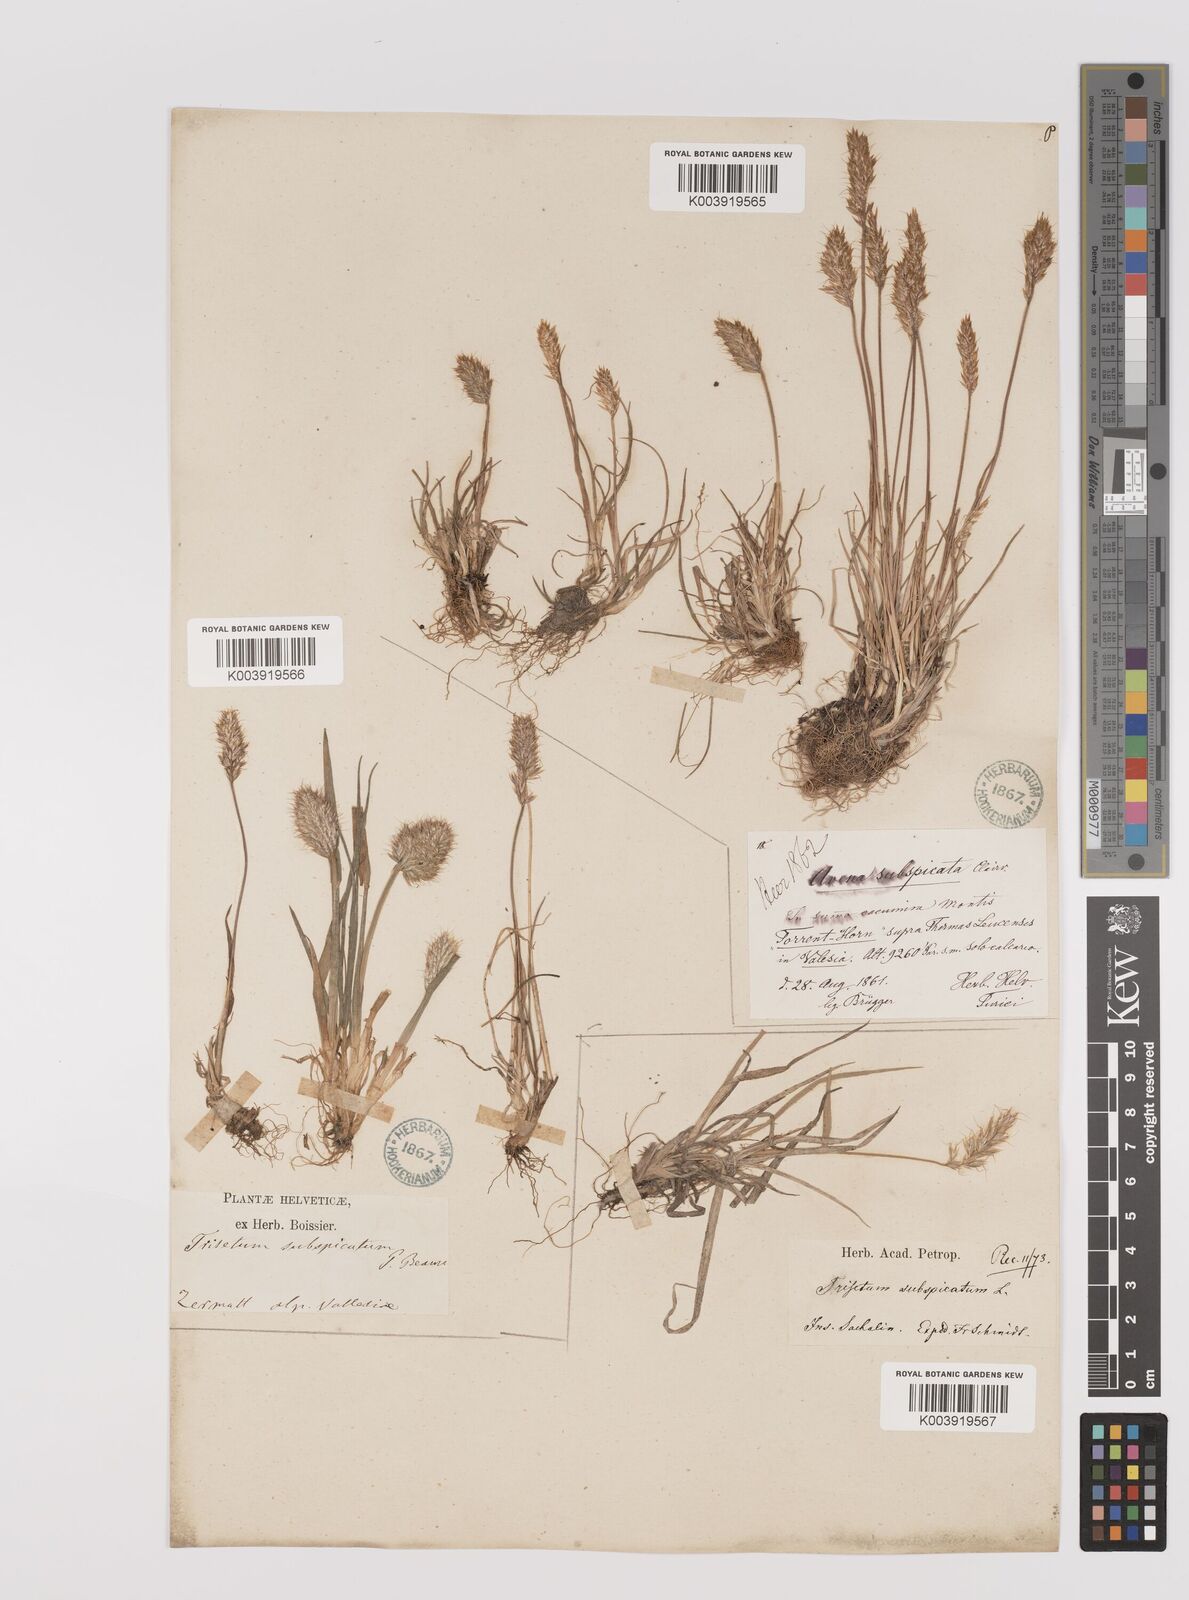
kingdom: Plantae
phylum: Tracheophyta
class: Liliopsida
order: Poales
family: Poaceae
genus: Koeleria
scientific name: Koeleria spicata
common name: Mountain trisetum
